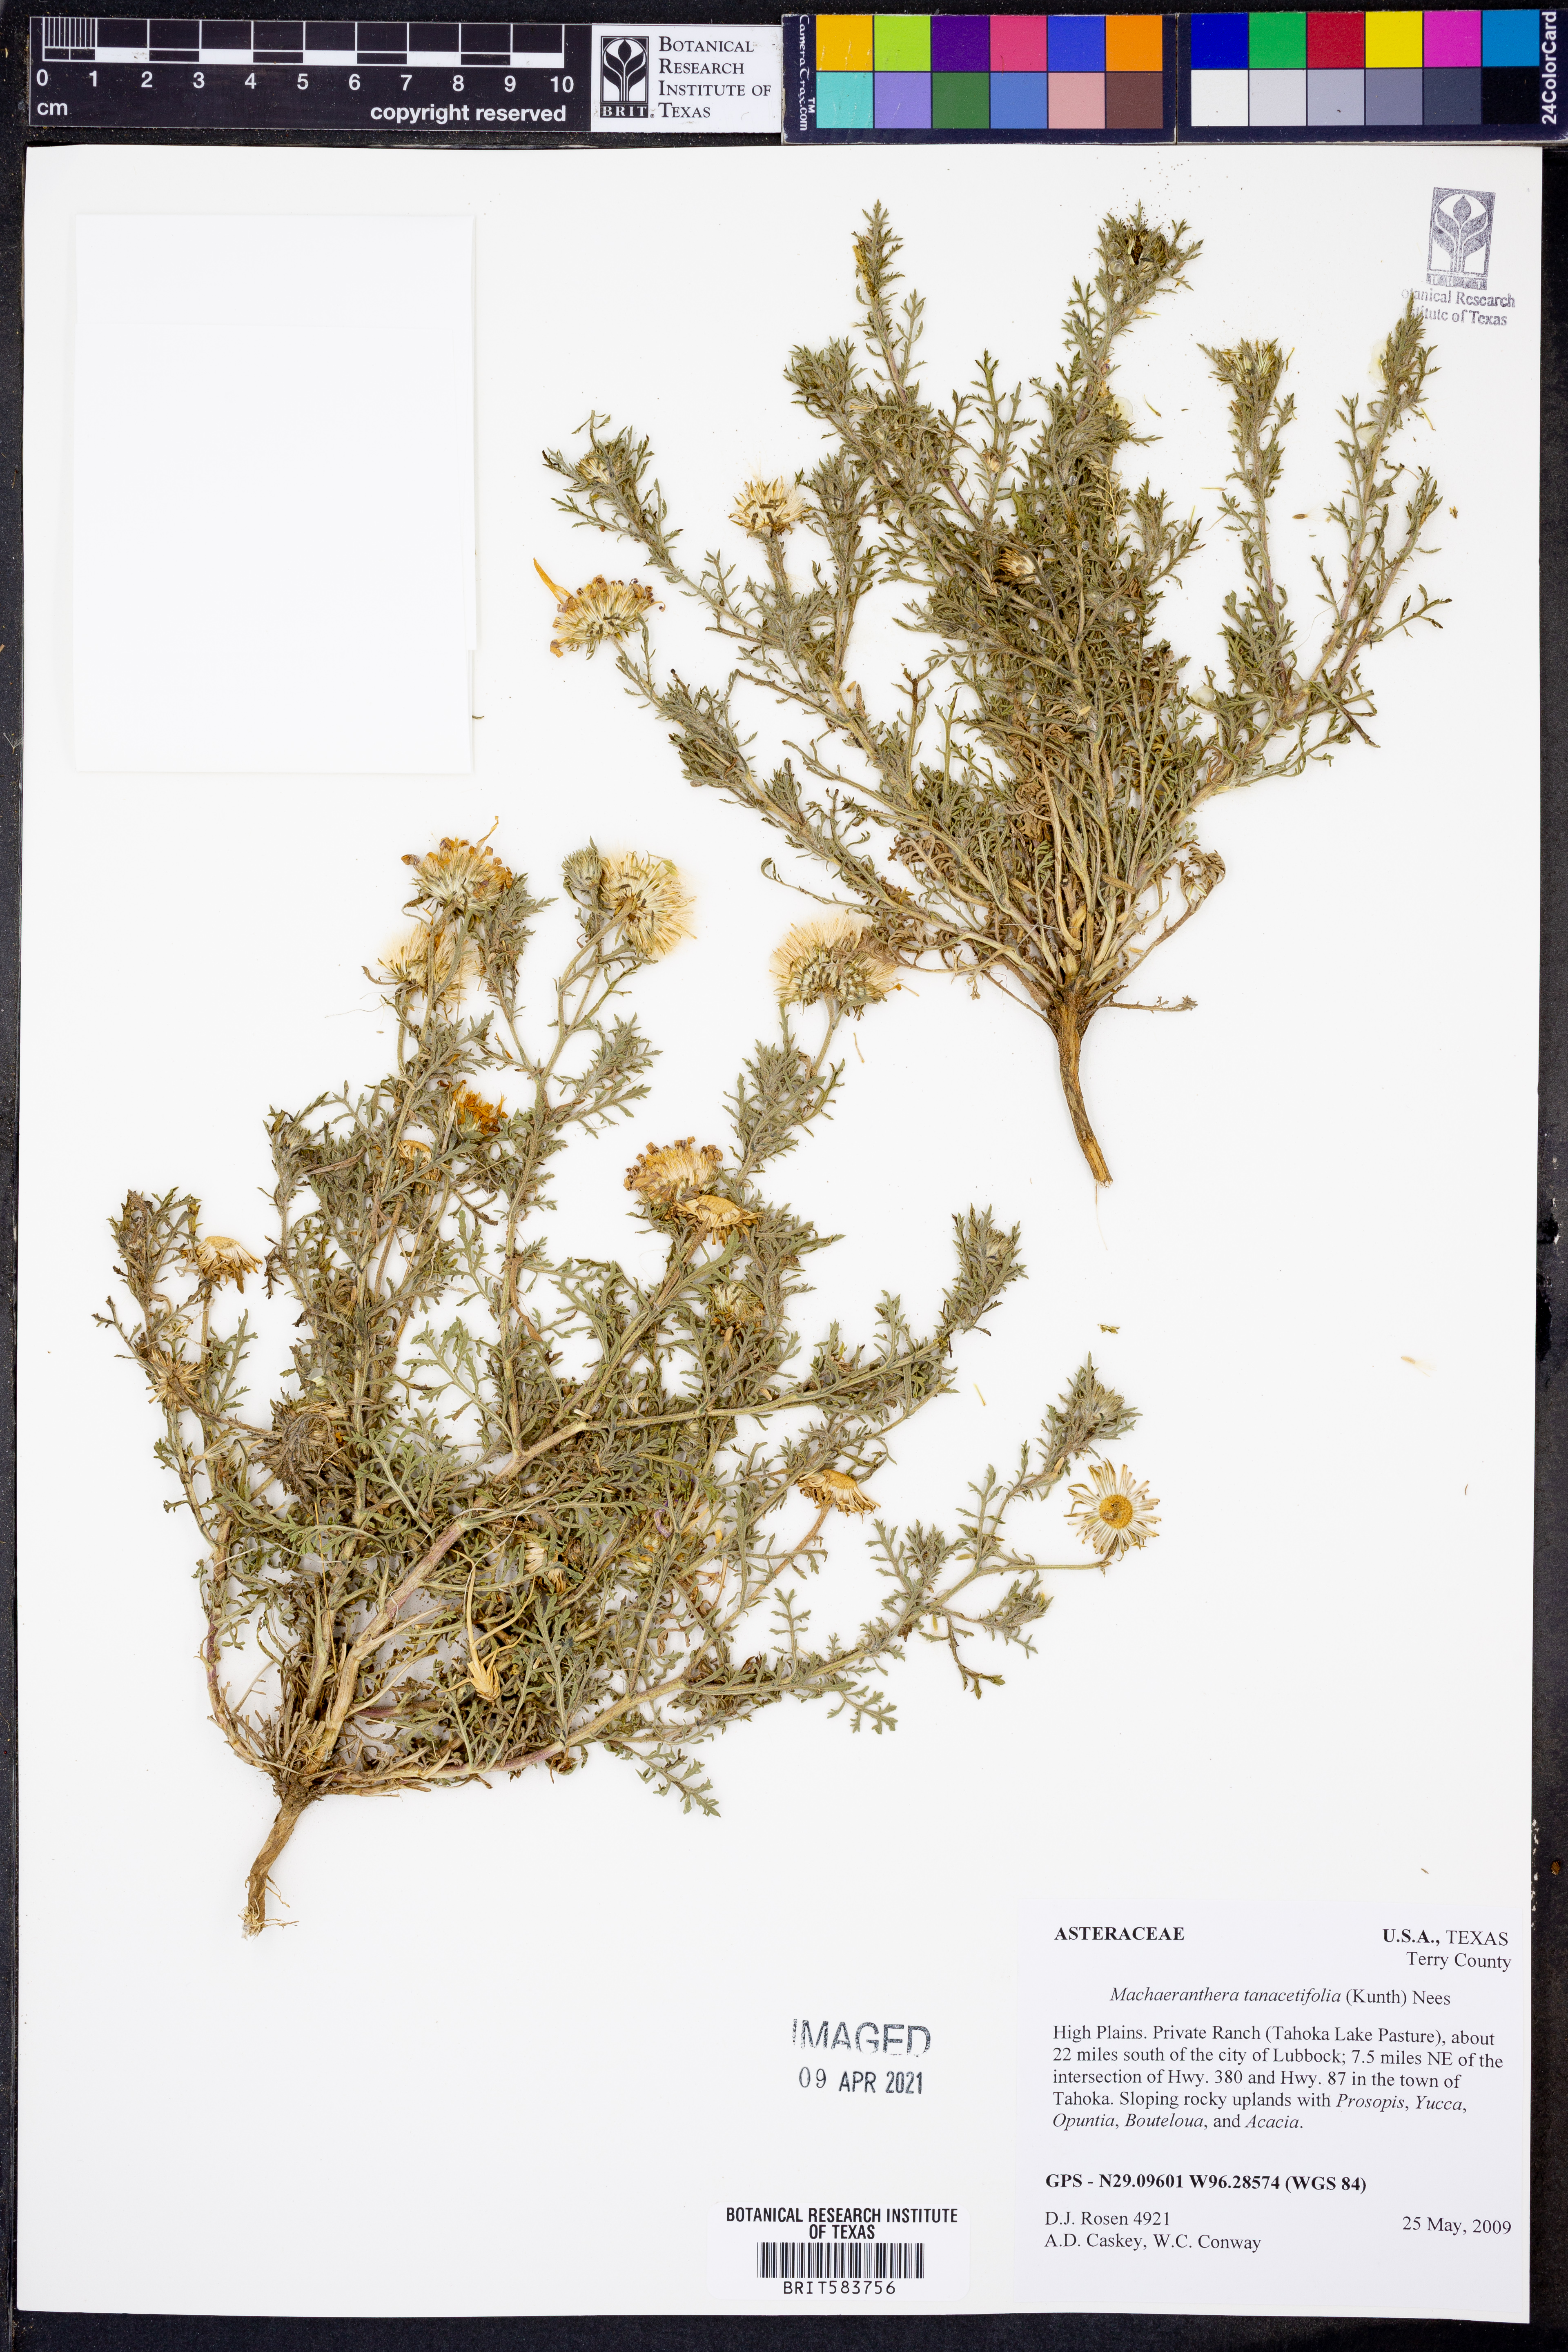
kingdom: Plantae
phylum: Tracheophyta
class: Magnoliopsida
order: Asterales
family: Asteraceae
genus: Machaeranthera
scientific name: Machaeranthera tanacetifolia
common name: Tansy-aster
